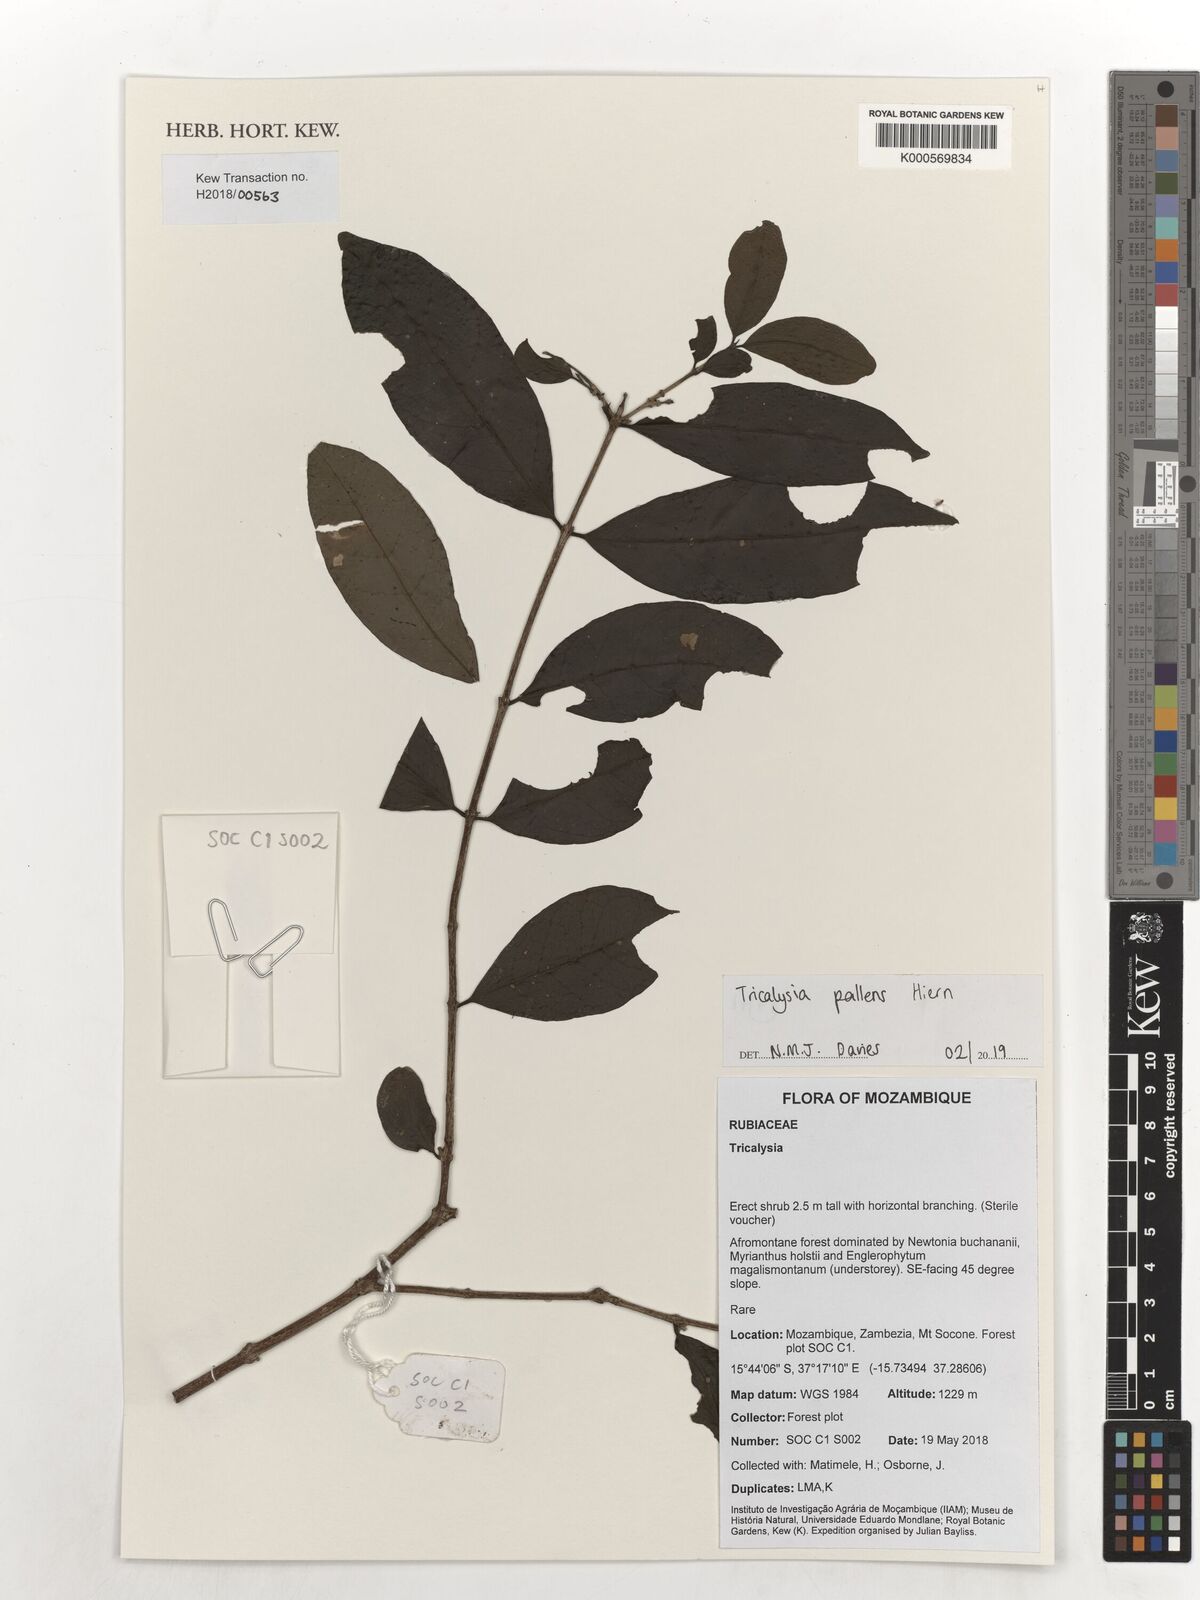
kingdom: Plantae
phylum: Tracheophyta
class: Magnoliopsida
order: Gentianales
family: Rubiaceae
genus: Tricalysia
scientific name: Tricalysia pallens
